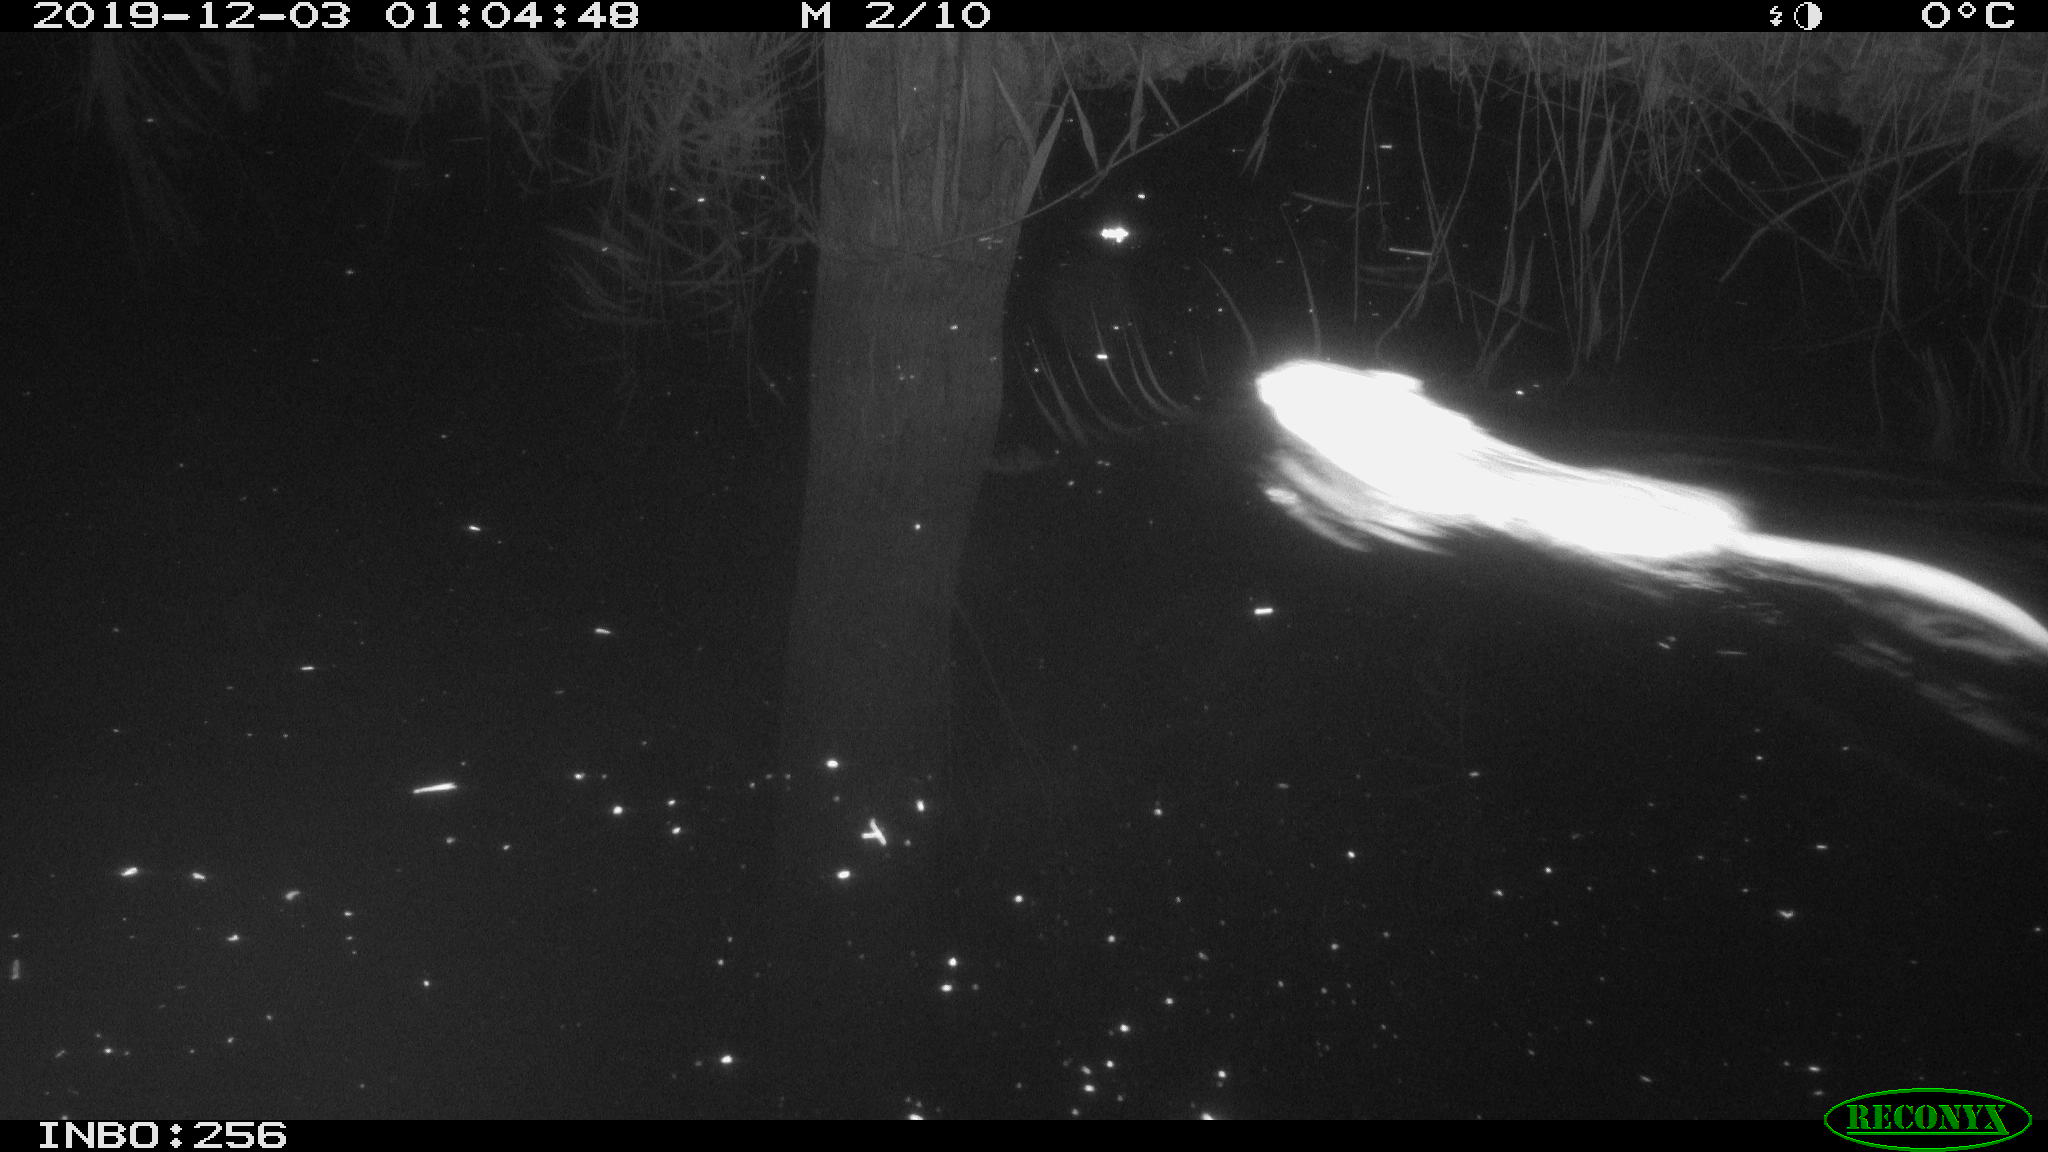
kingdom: Animalia
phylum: Chordata
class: Mammalia
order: Rodentia
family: Cricetidae
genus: Ondatra
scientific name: Ondatra zibethicus
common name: Muskrat
